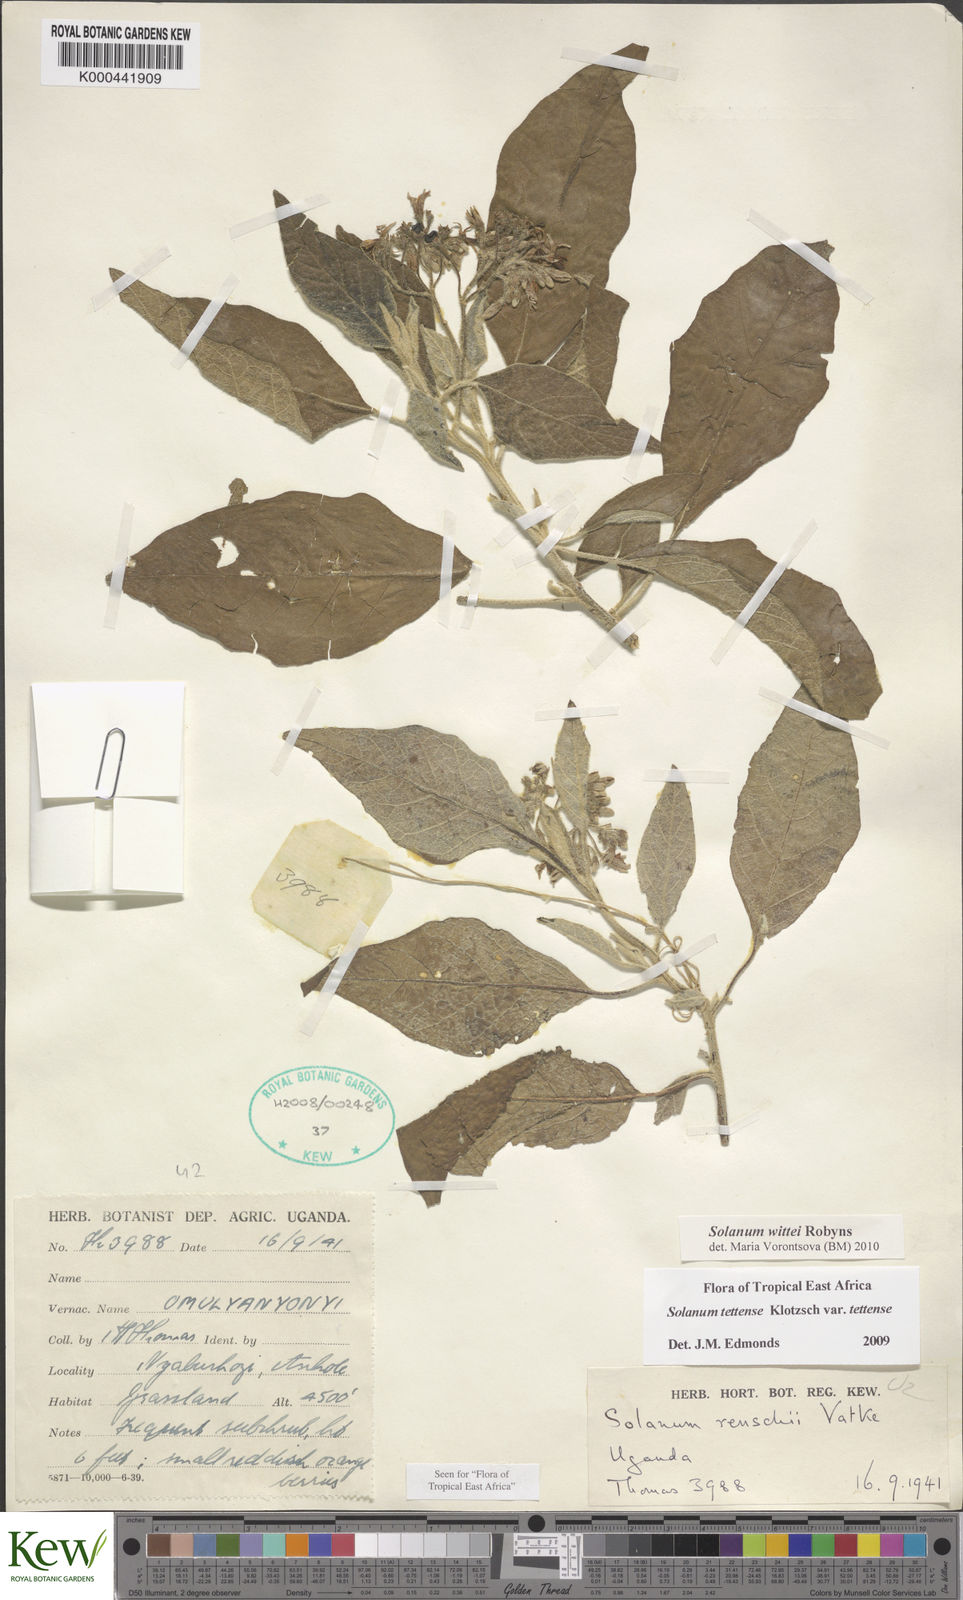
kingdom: Plantae
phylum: Tracheophyta
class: Magnoliopsida
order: Solanales
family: Solanaceae
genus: Solanum
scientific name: Solanum wittei
